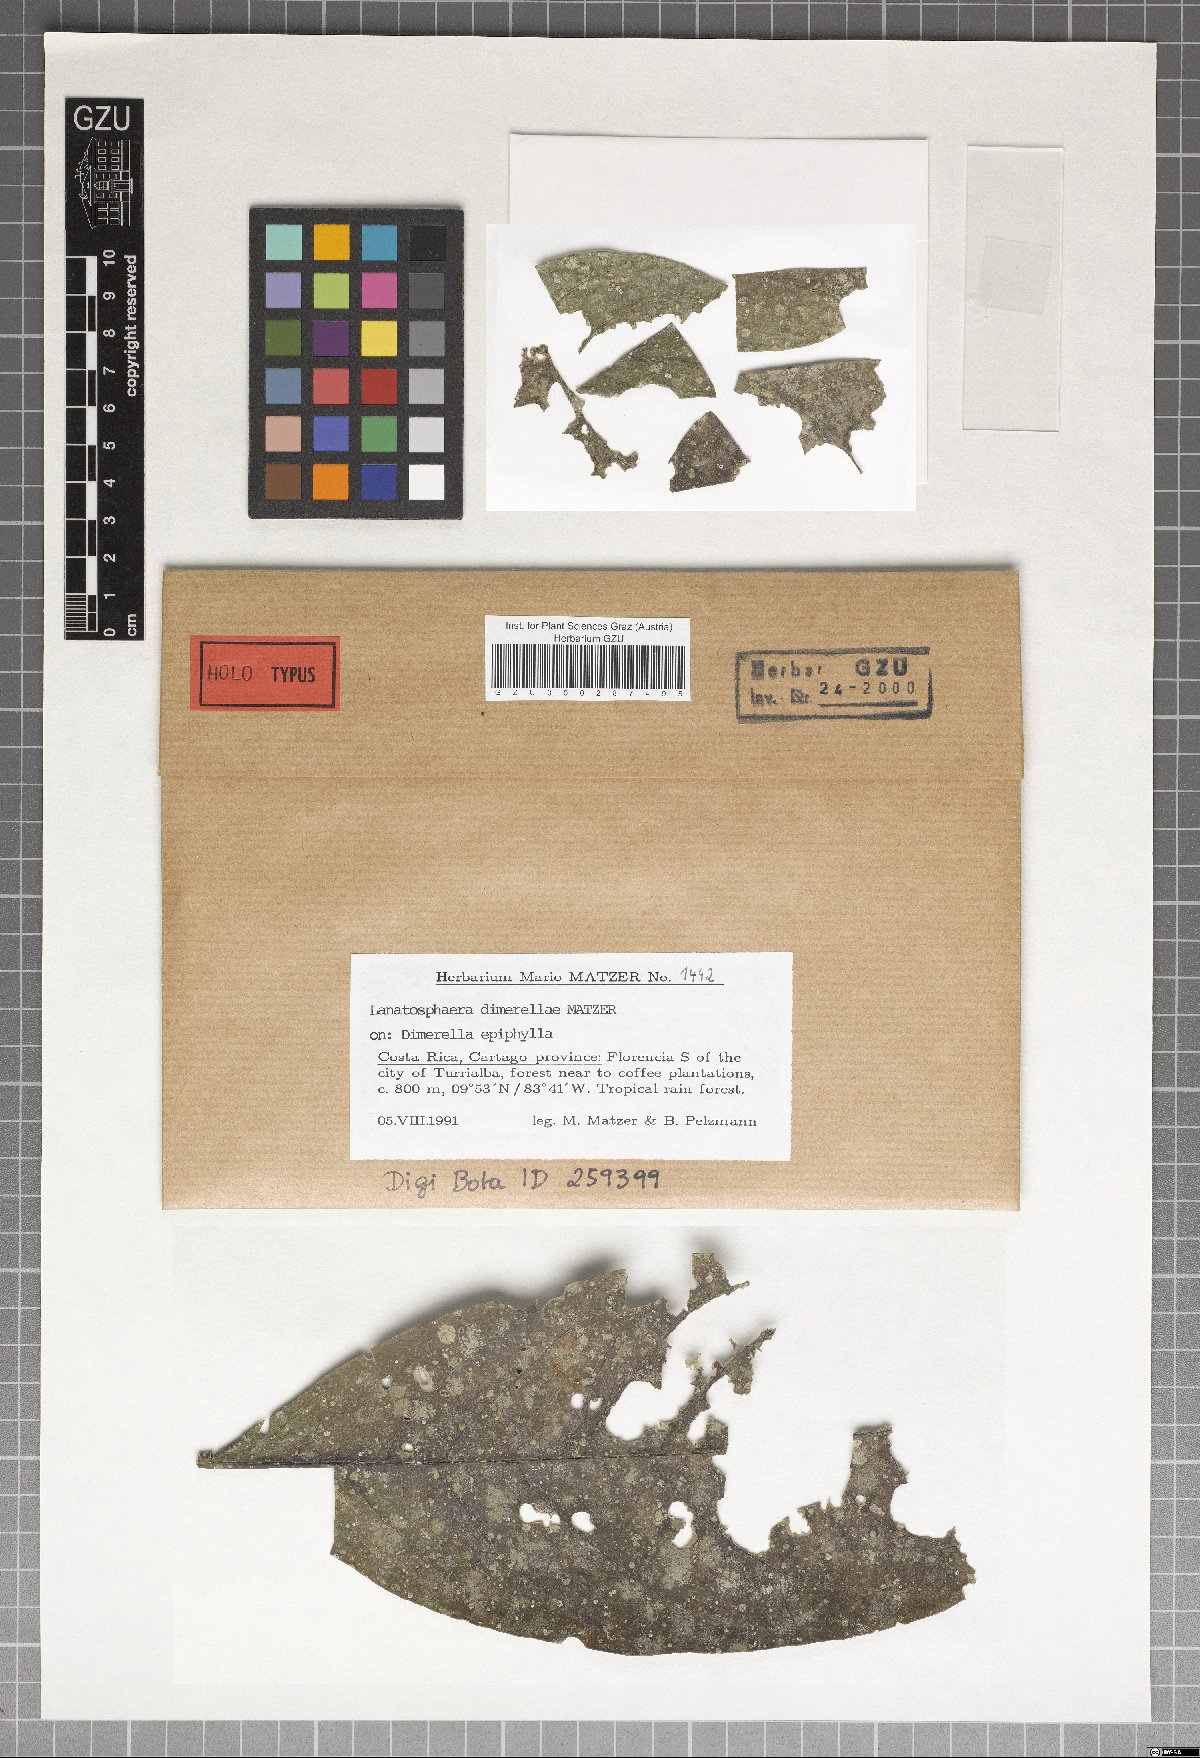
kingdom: Fungi
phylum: Ascomycota
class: Dothideomycetes
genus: Lanatosphaera
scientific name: Lanatosphaera dimerellae
